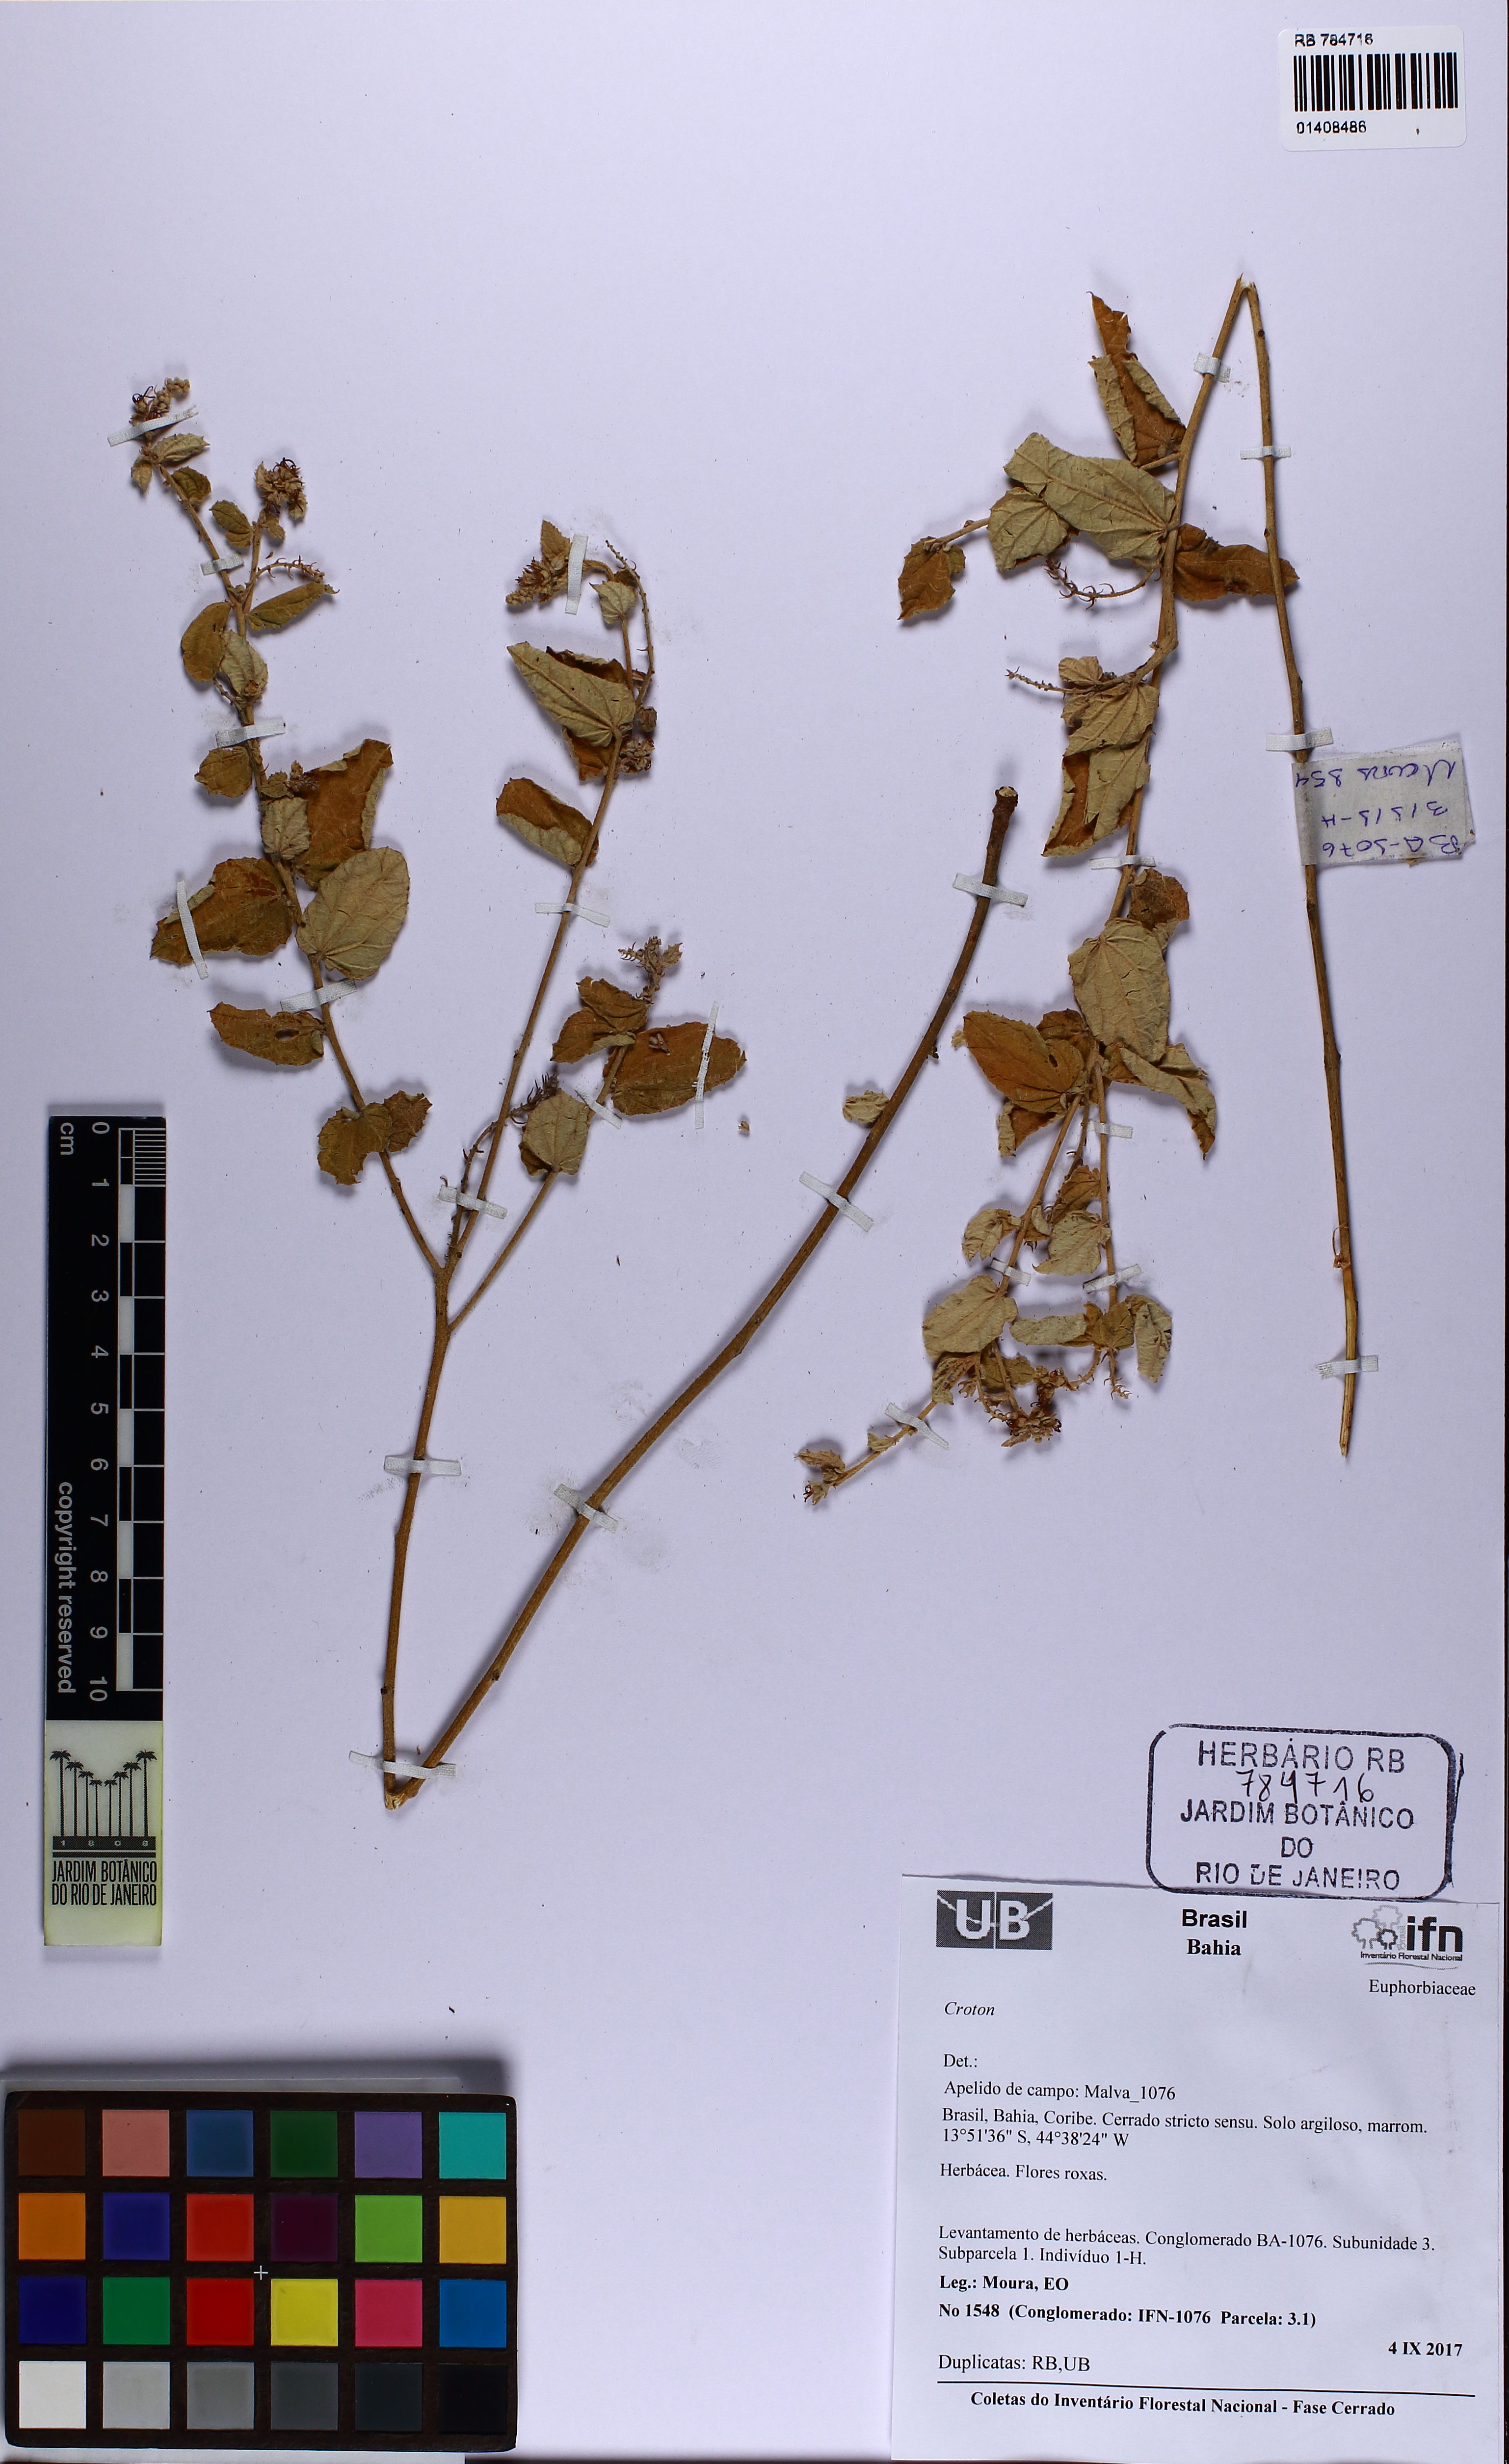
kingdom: Plantae
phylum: Tracheophyta
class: Magnoliopsida
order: Malpighiales
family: Euphorbiaceae
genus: Croton
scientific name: Croton
